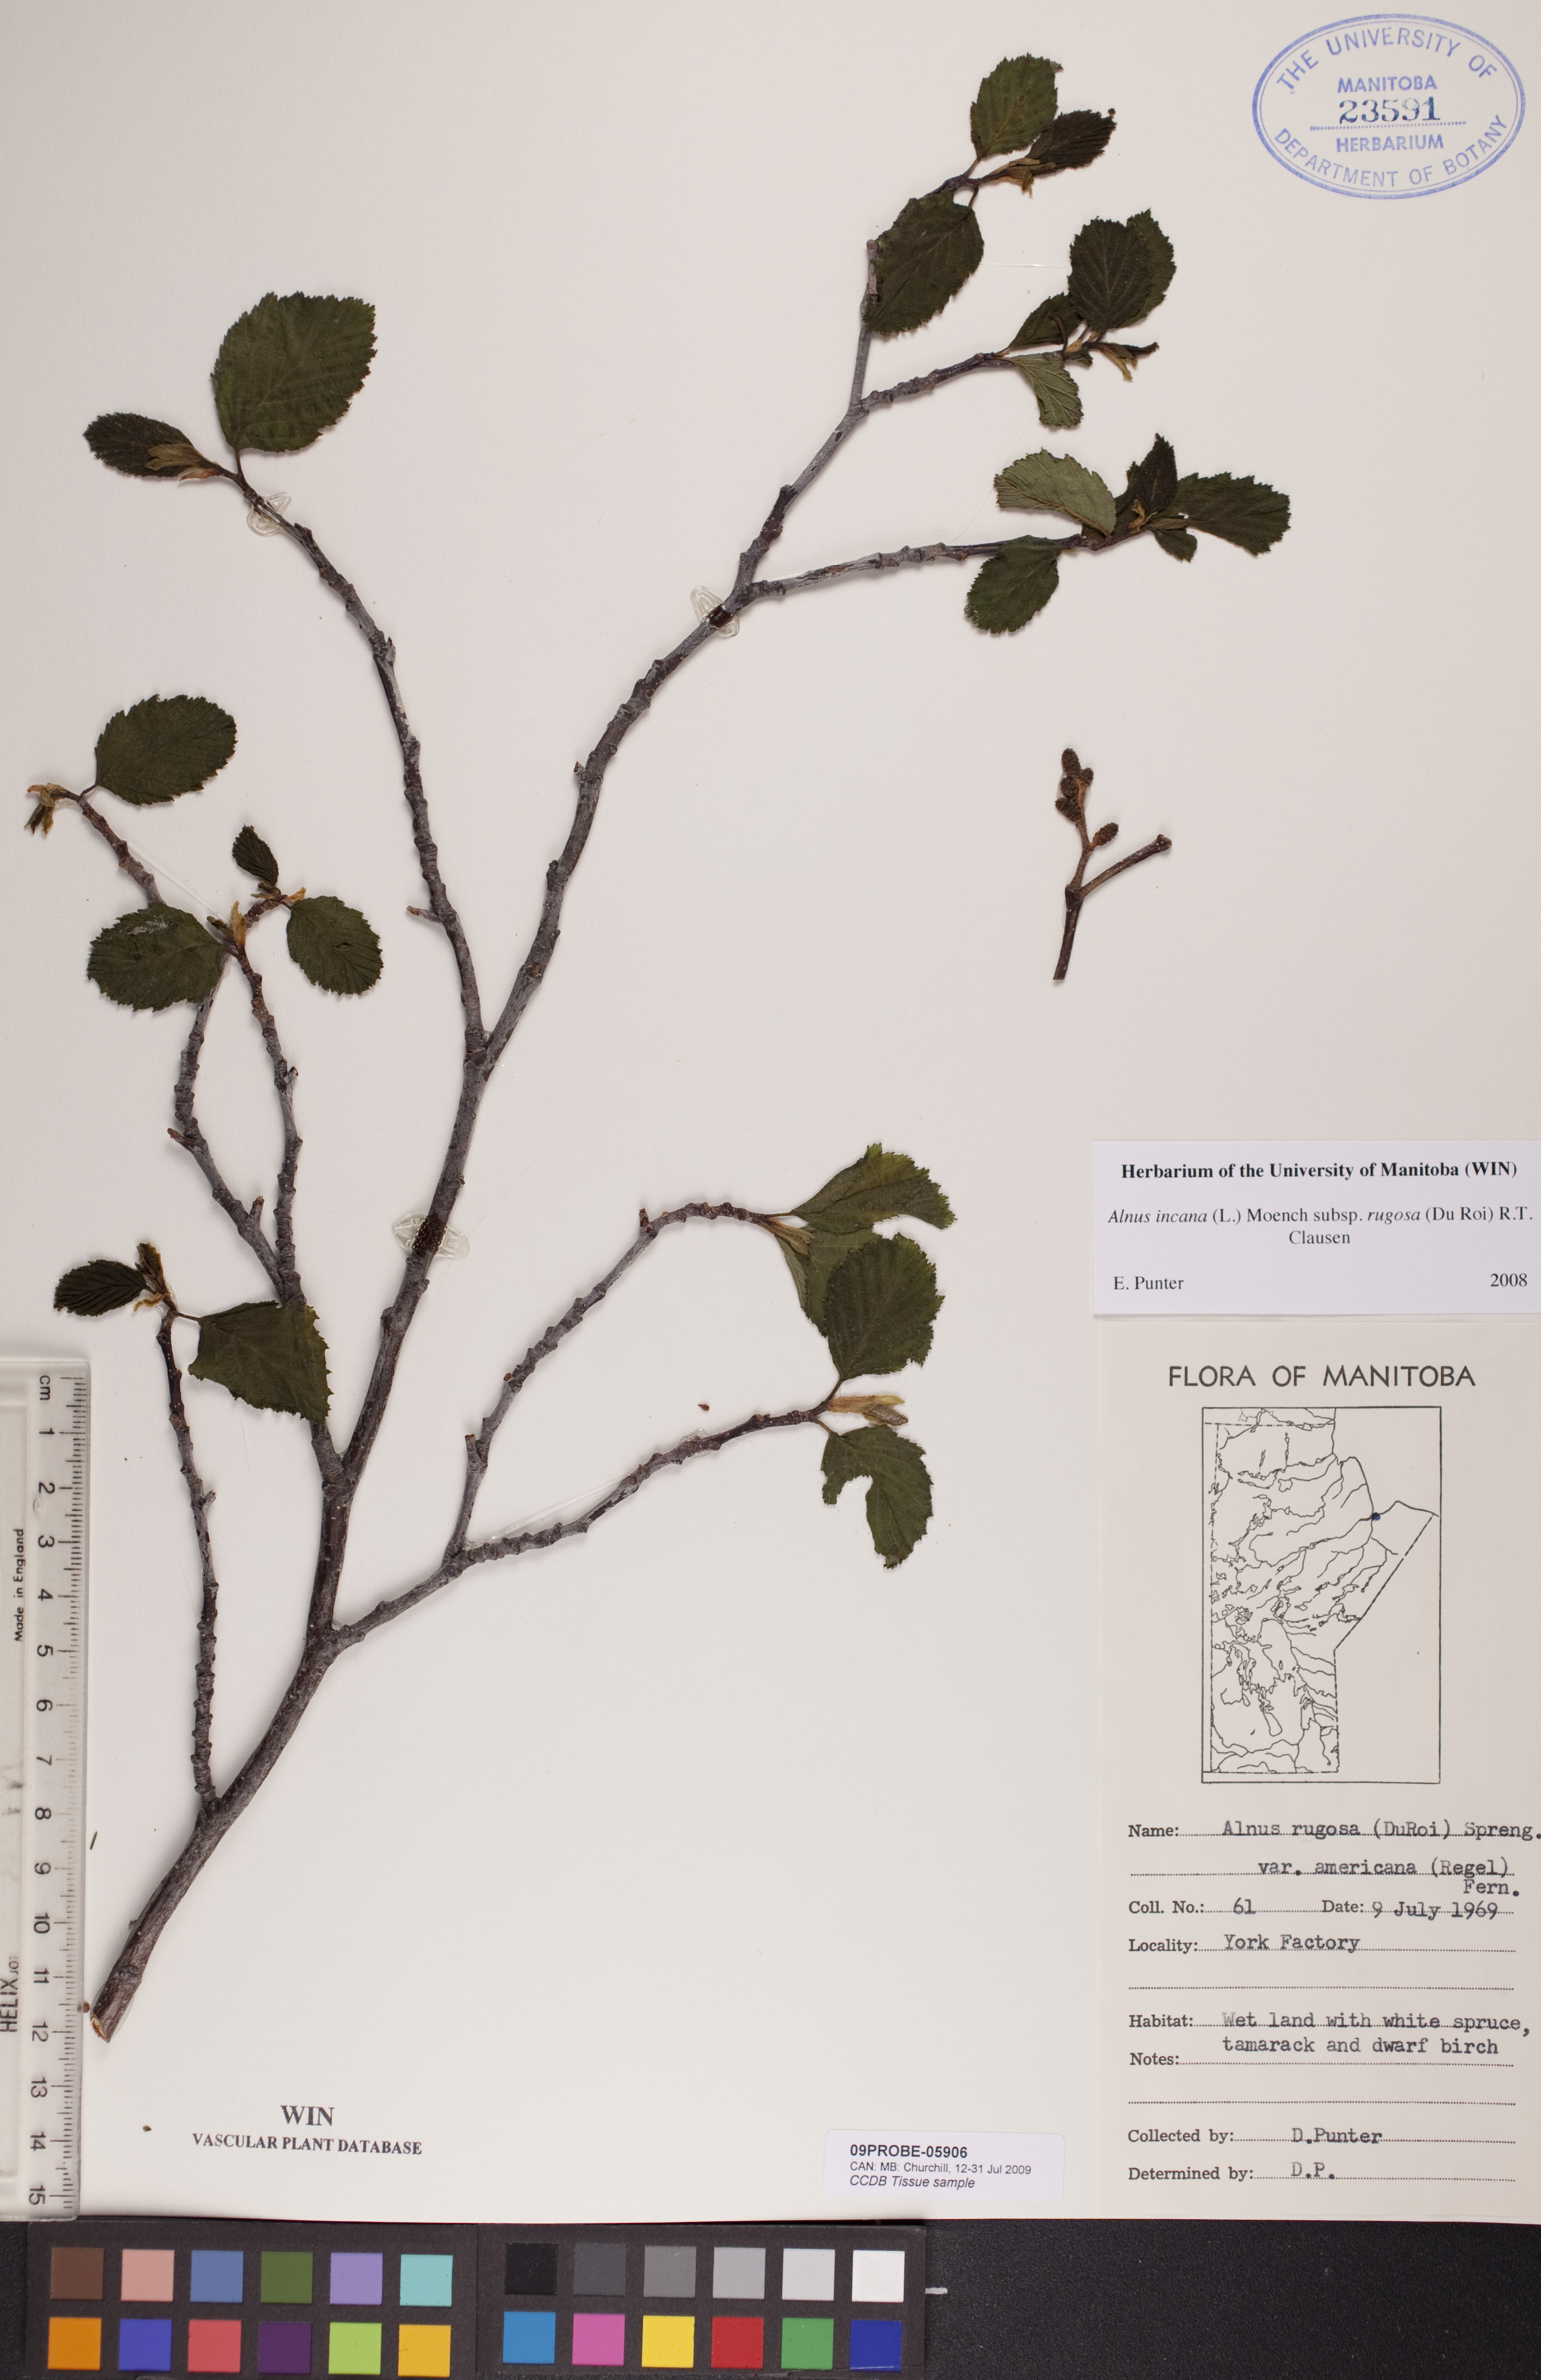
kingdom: Plantae
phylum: Tracheophyta
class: Magnoliopsida
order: Fagales
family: Betulaceae
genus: Alnus
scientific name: Alnus incana
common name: Grey alder
